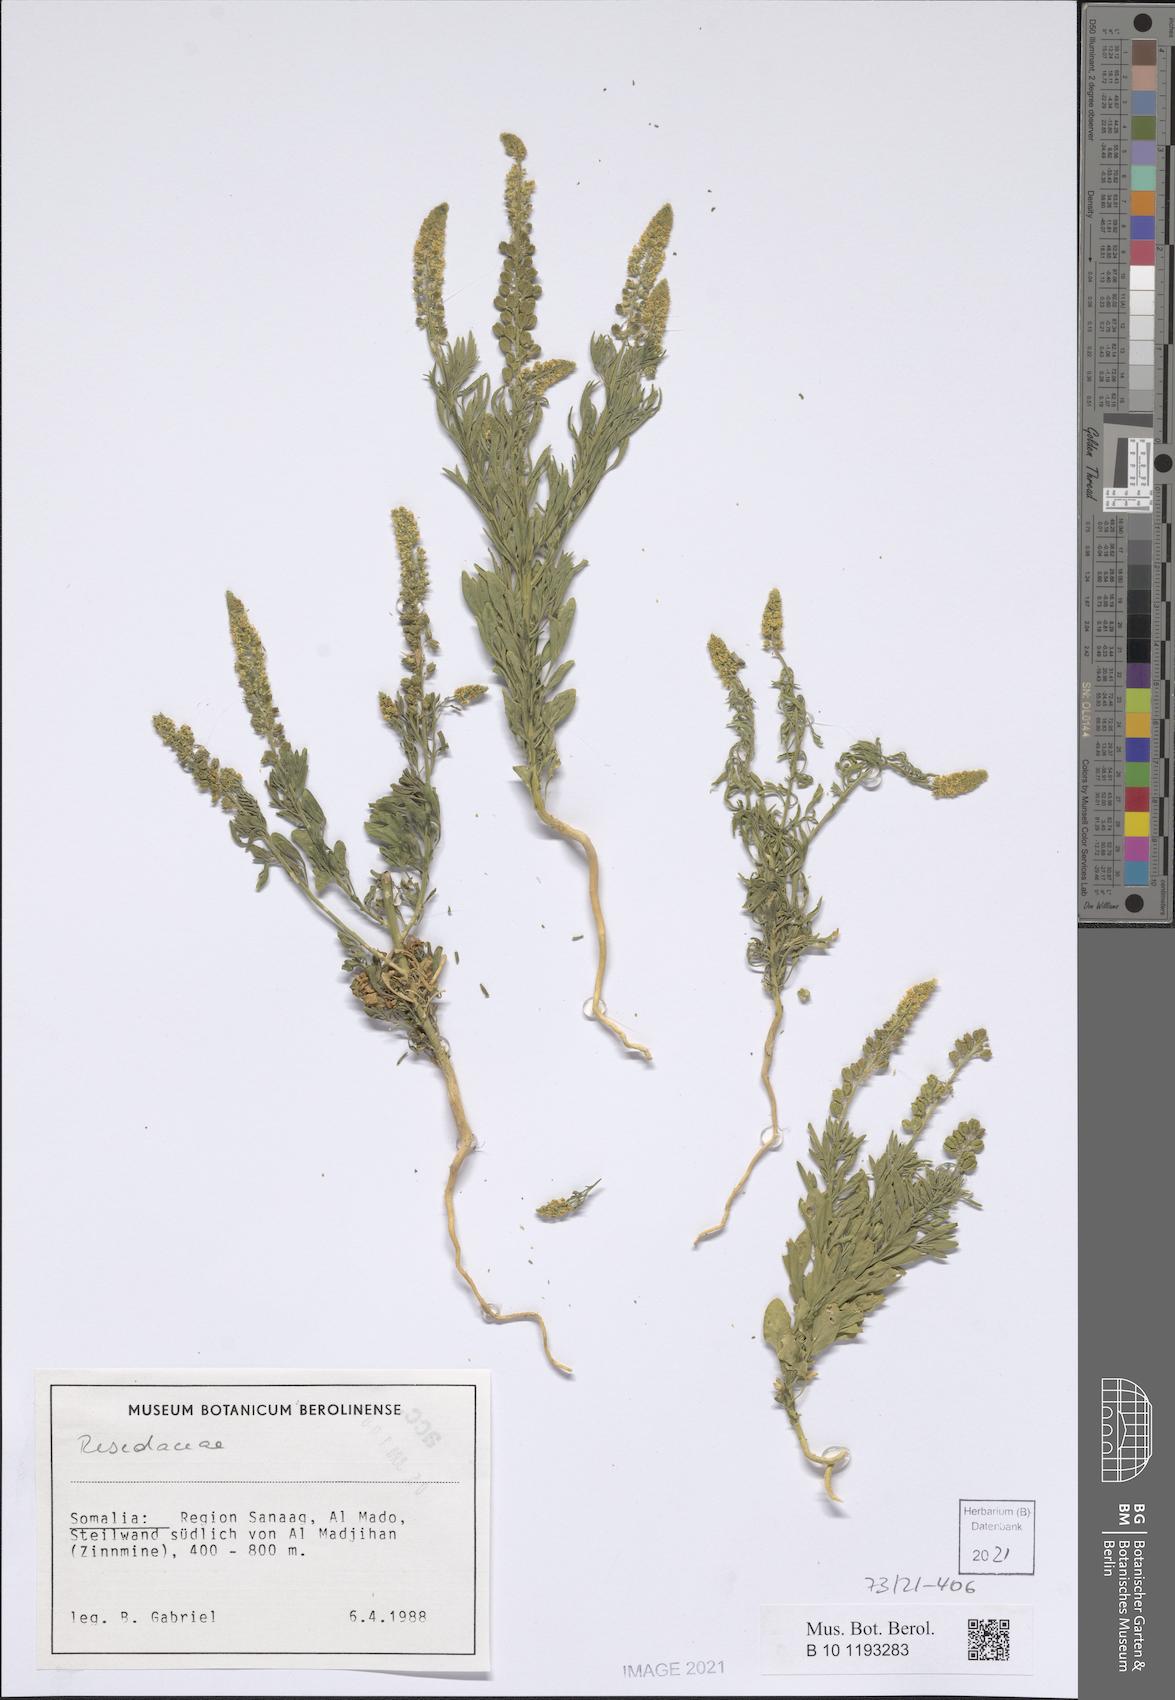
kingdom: Plantae
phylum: Tracheophyta
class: Magnoliopsida
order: Brassicales
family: Resedaceae
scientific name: Resedaceae
